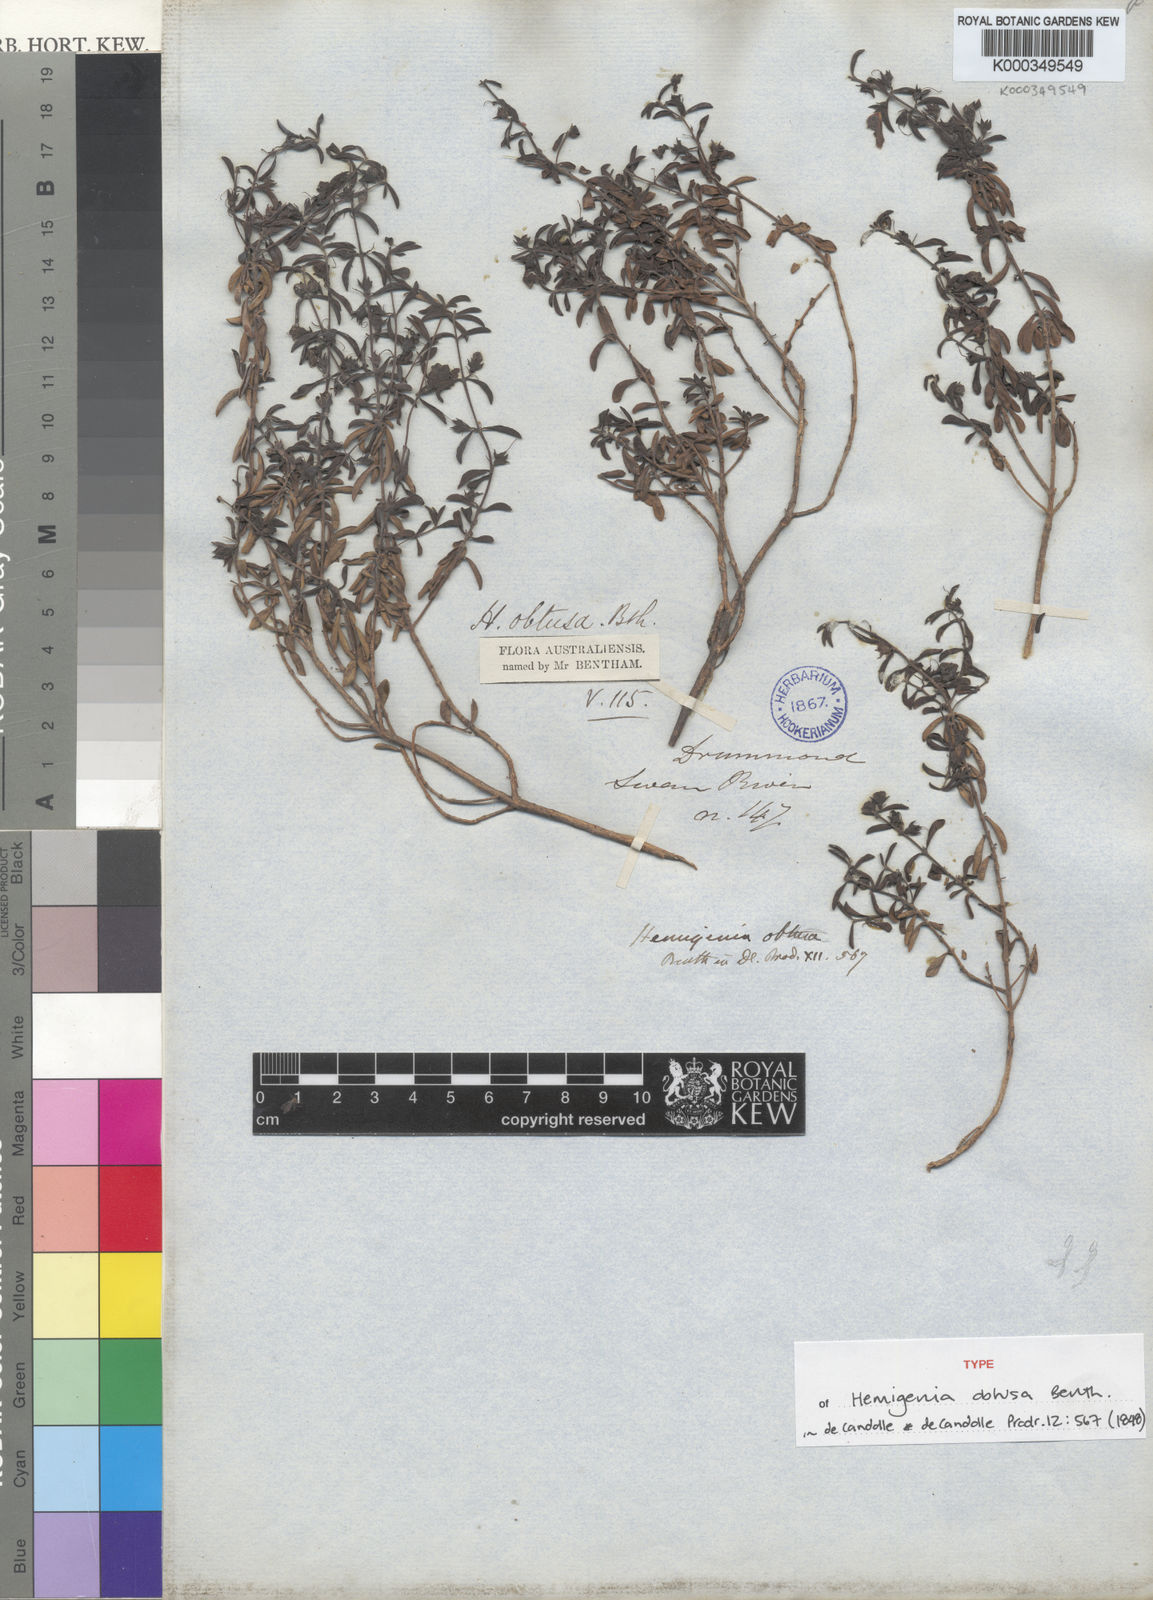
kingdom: Plantae
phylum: Tracheophyta
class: Magnoliopsida
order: Lamiales
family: Lamiaceae
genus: Hemigenia
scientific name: Hemigenia obtusa
